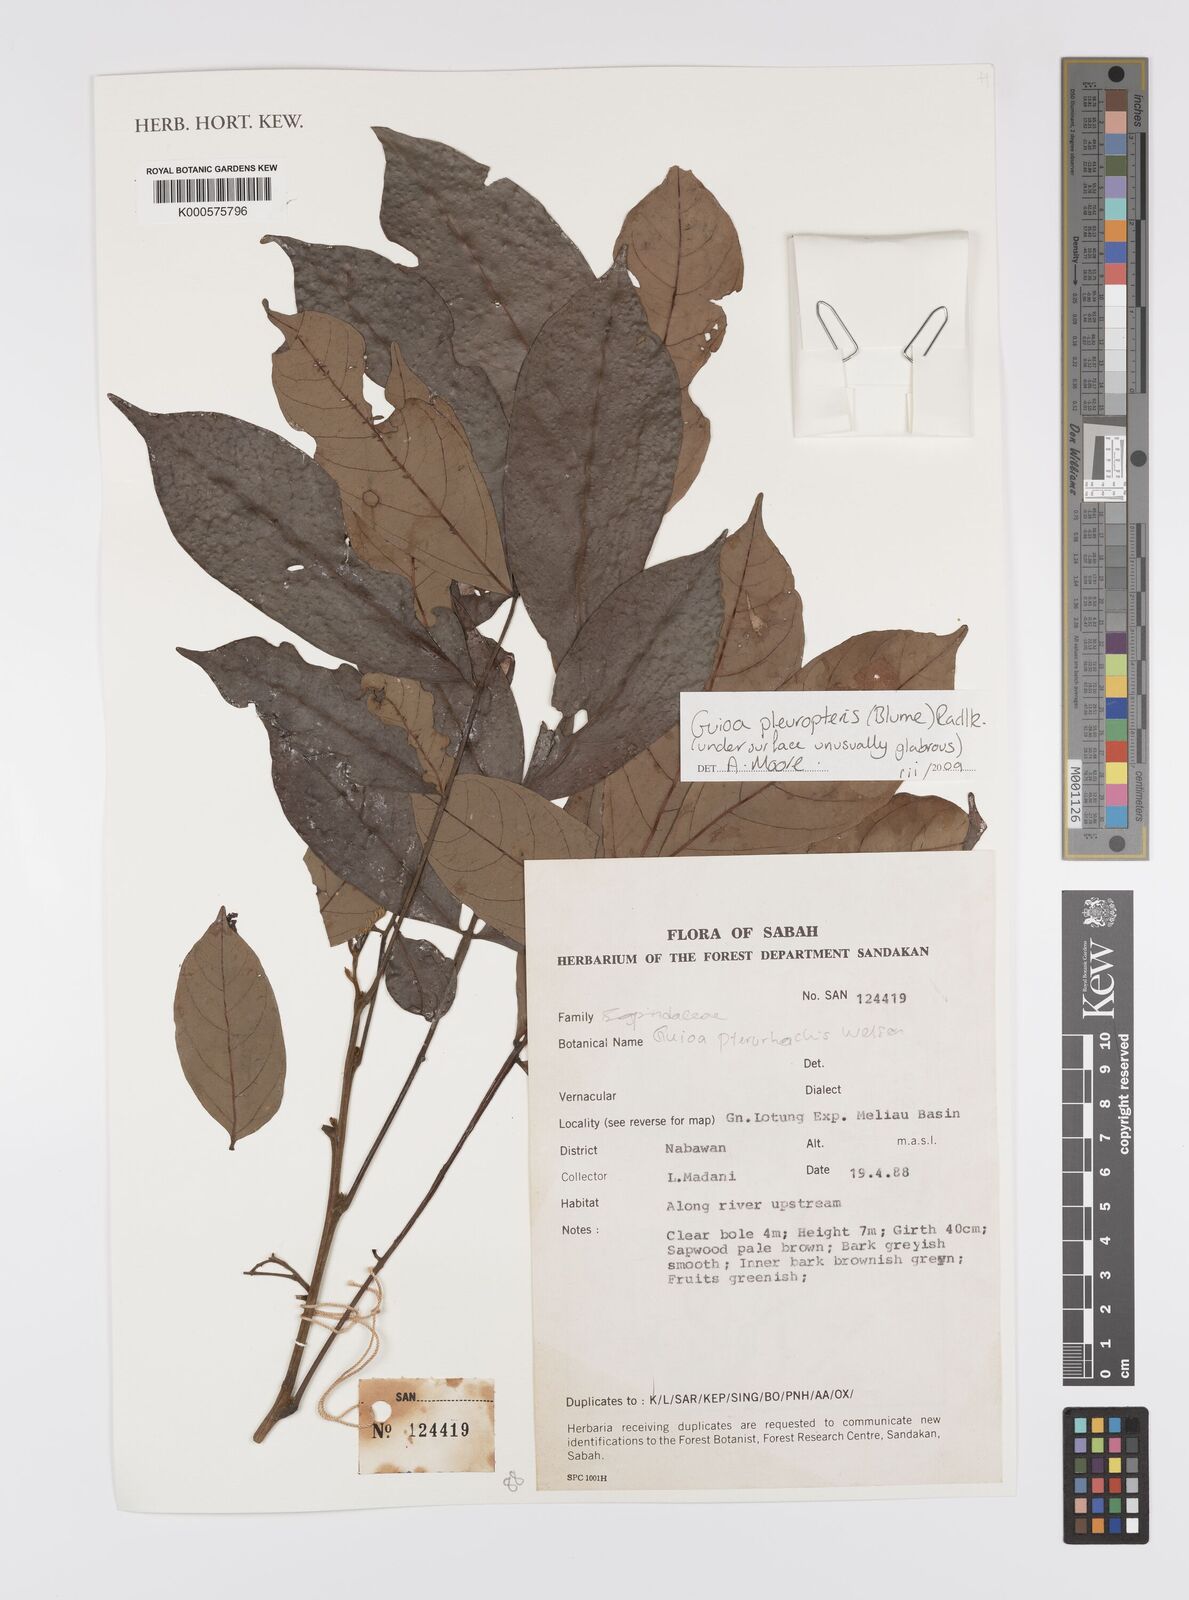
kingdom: Plantae
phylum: Tracheophyta
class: Magnoliopsida
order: Sapindales
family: Sapindaceae
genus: Guioa
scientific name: Guioa pleuropteris
